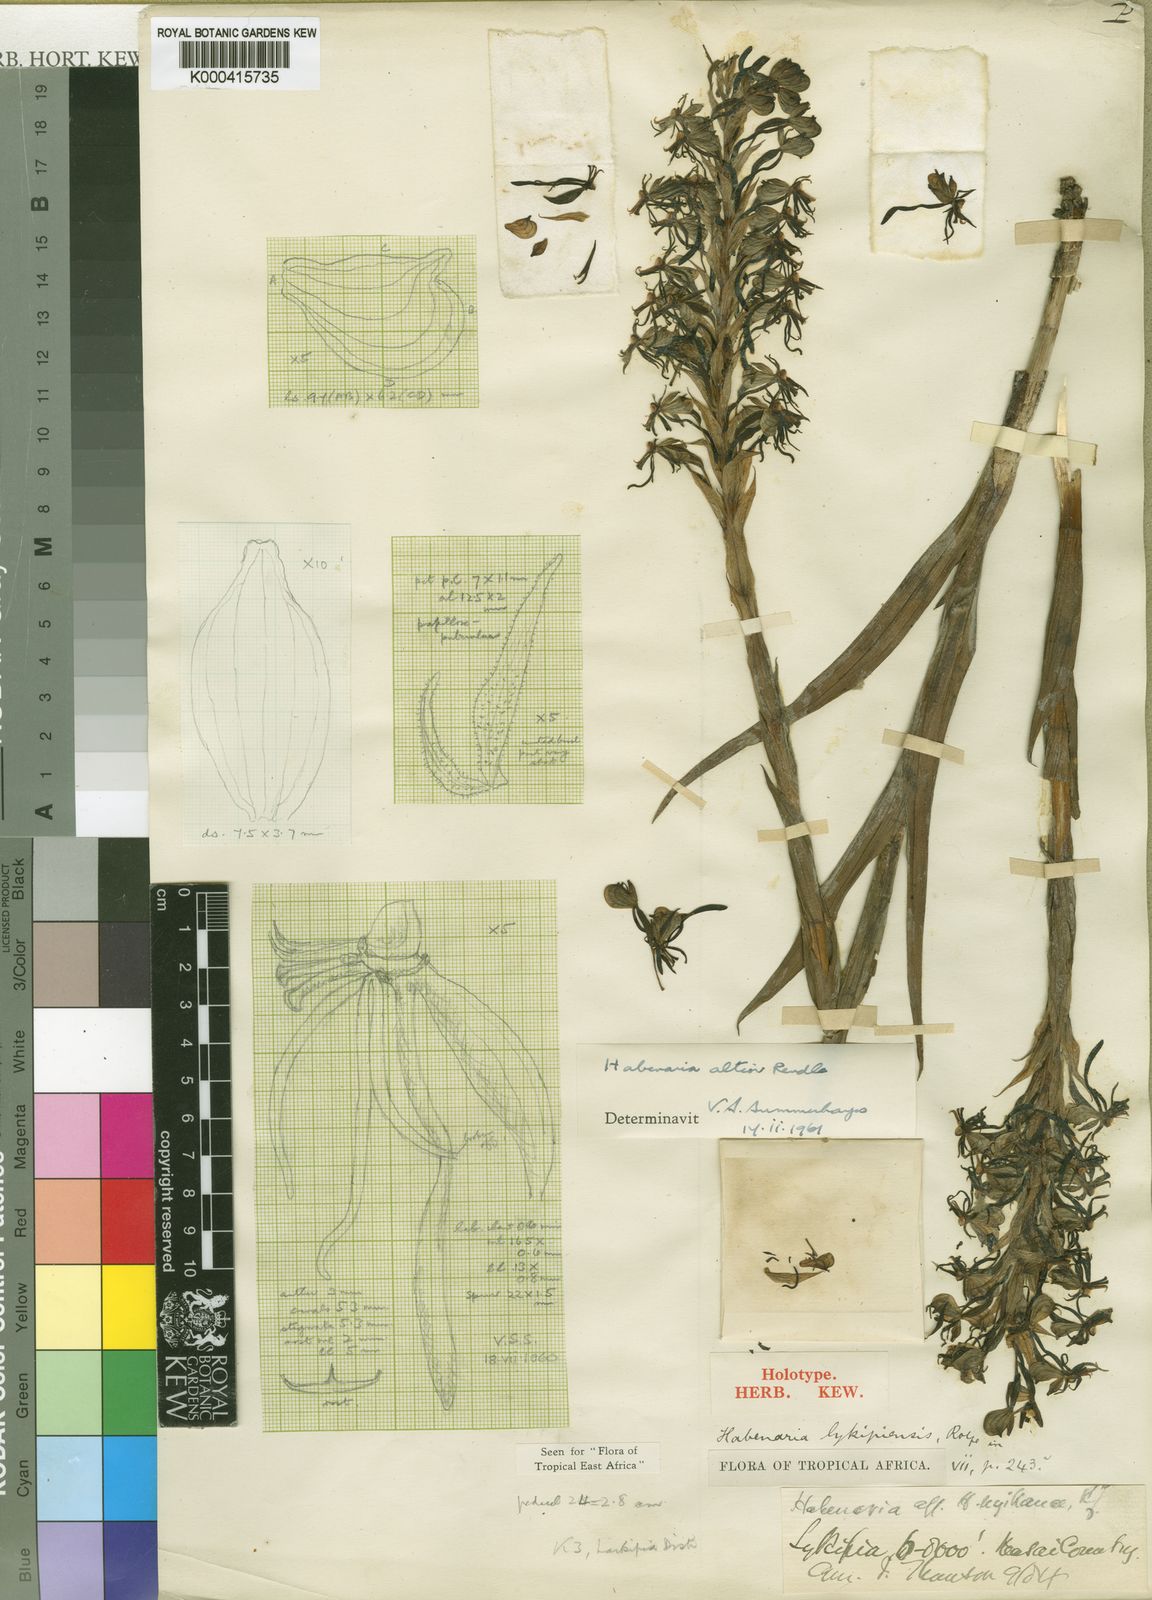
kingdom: Plantae
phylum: Tracheophyta
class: Liliopsida
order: Asparagales
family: Orchidaceae
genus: Habenaria
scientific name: Habenaria altior
